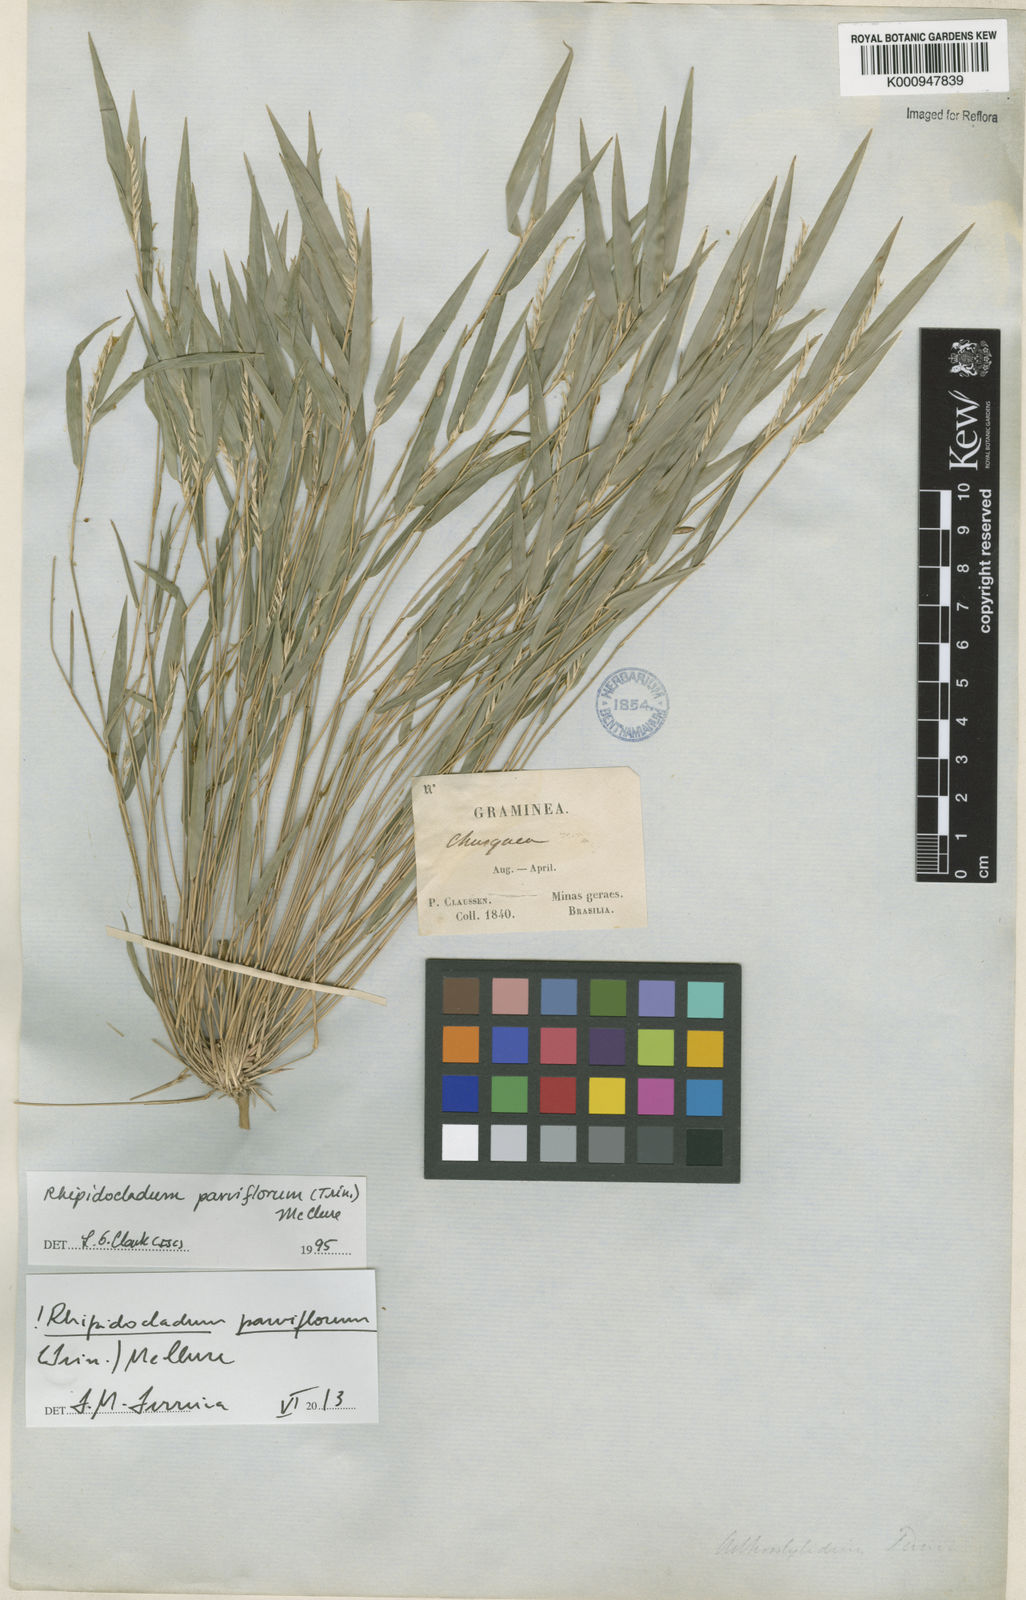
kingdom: Plantae
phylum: Tracheophyta
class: Liliopsida
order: Poales
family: Poaceae
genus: Rhipidocladum
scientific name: Rhipidocladum parviflorum
